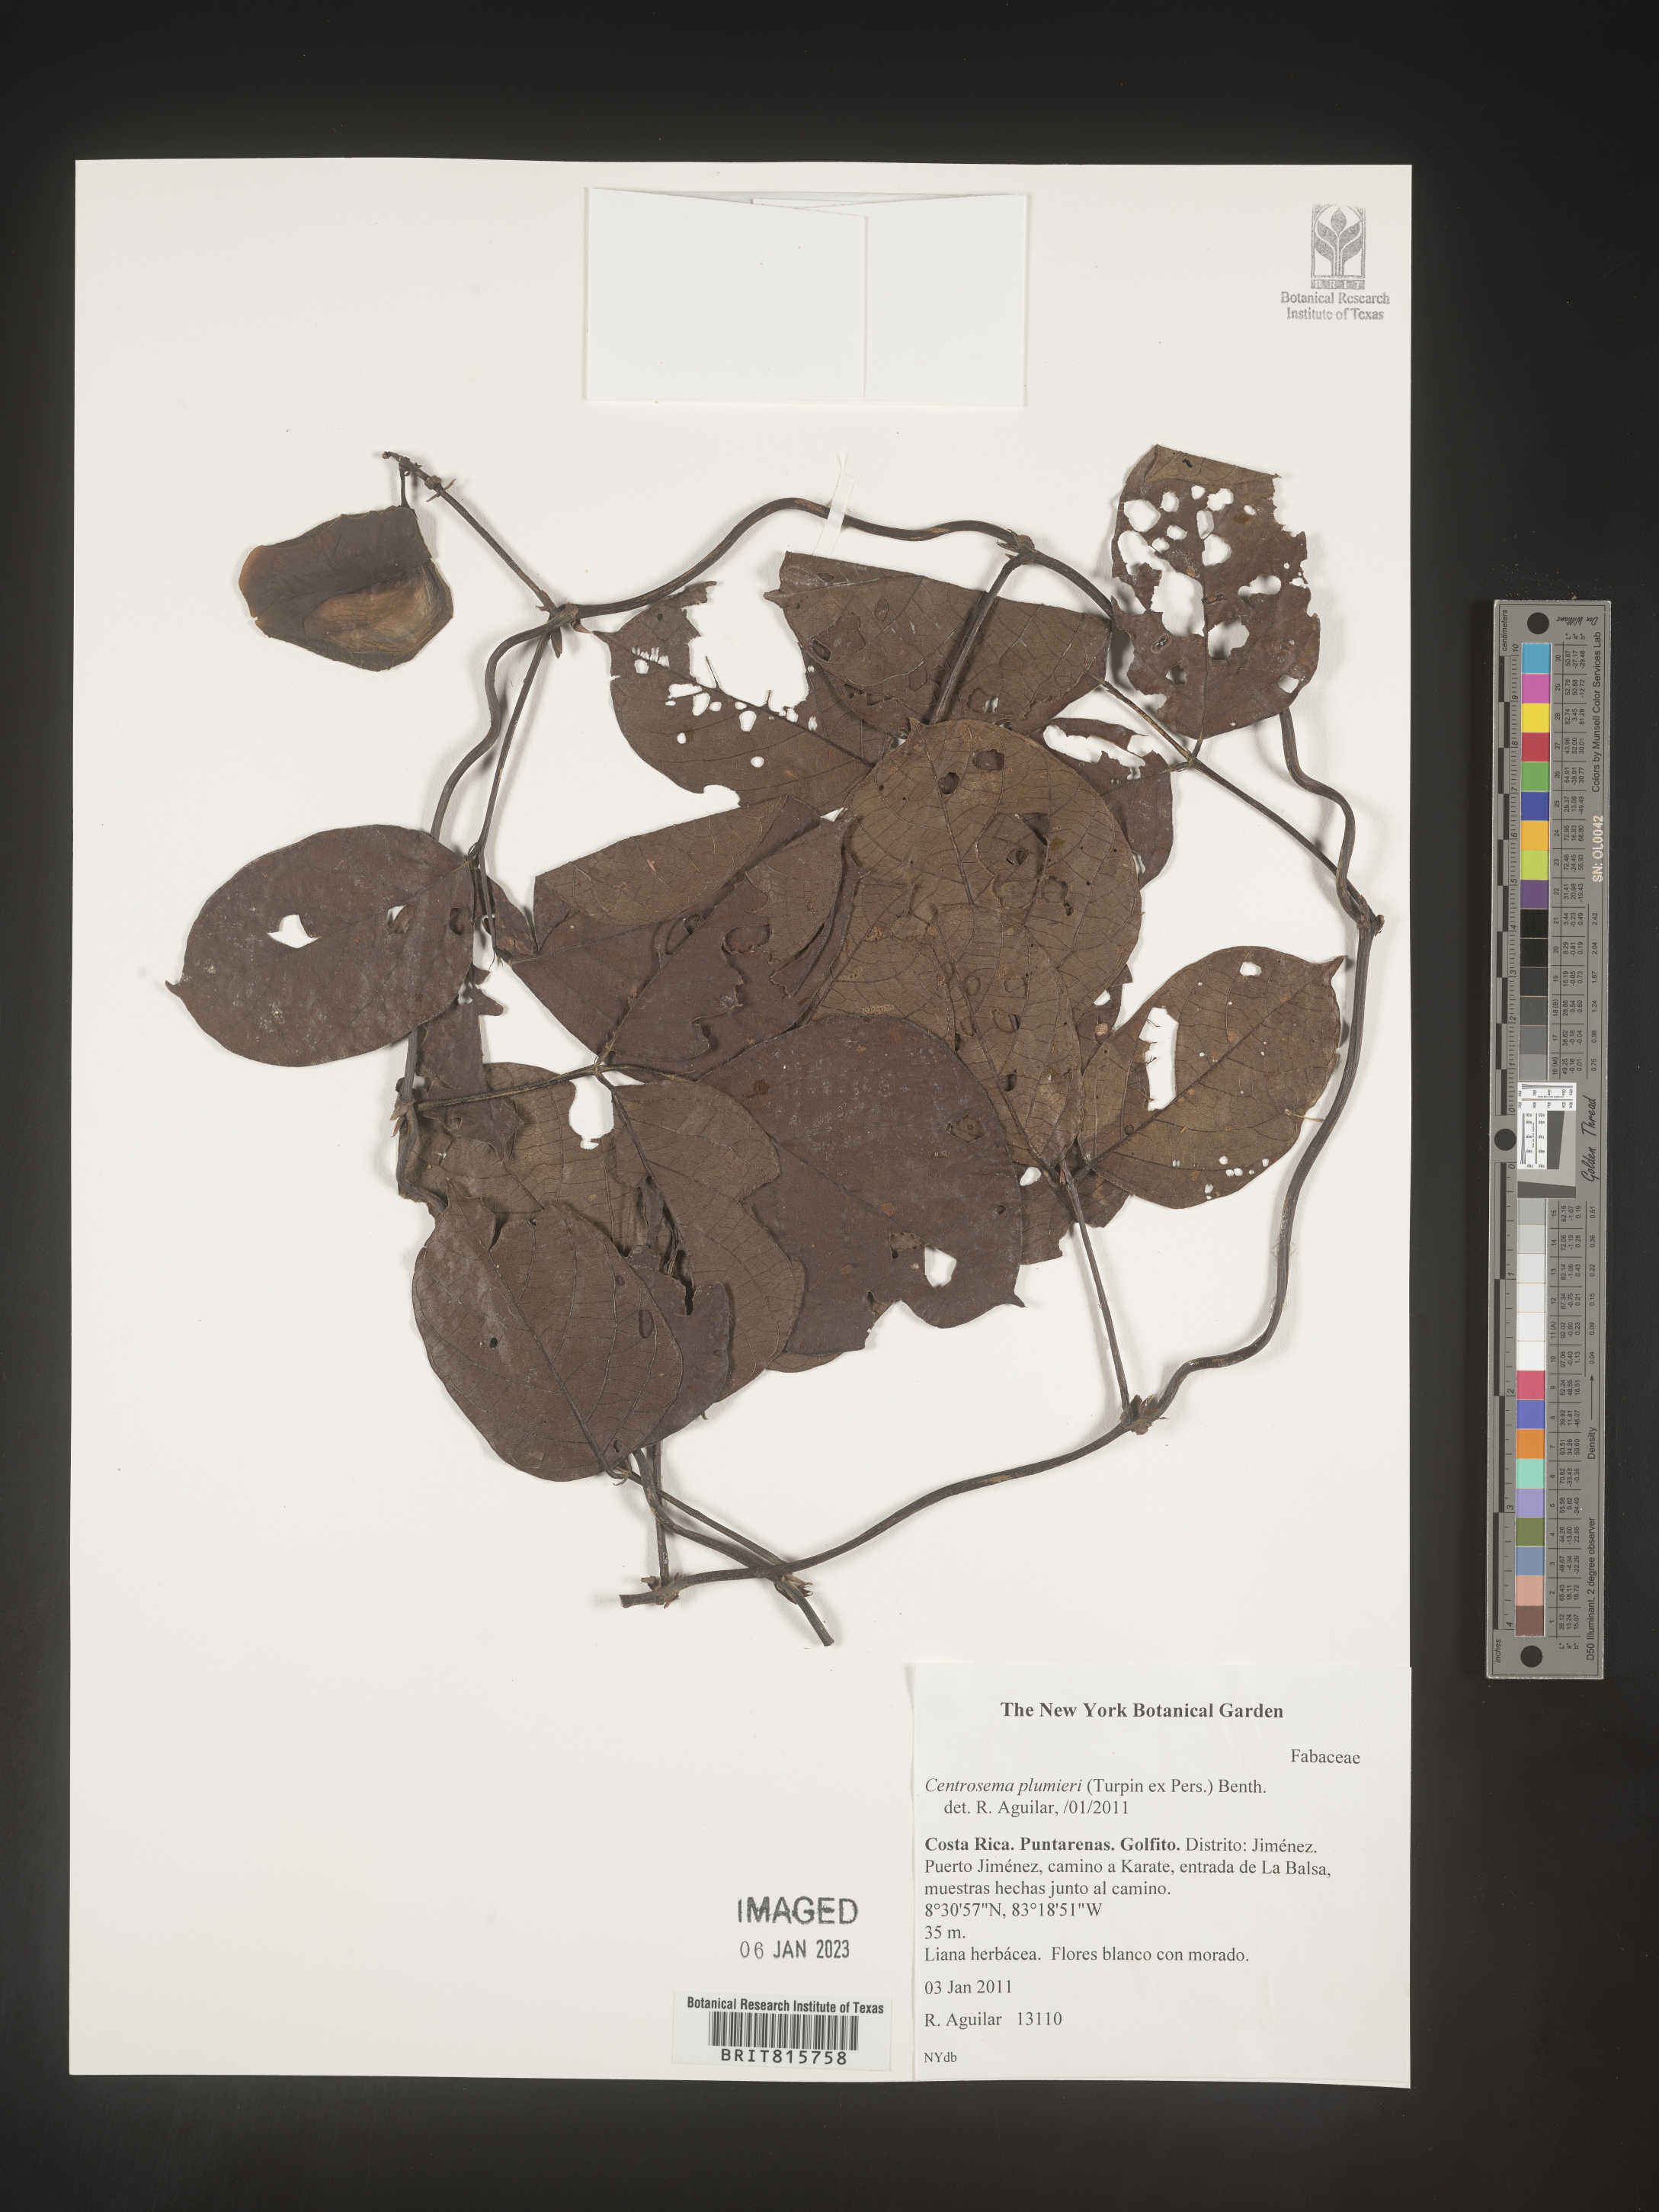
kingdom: Plantae
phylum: Tracheophyta
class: Magnoliopsida
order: Fabales
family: Fabaceae
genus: Centrosema
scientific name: Centrosema
